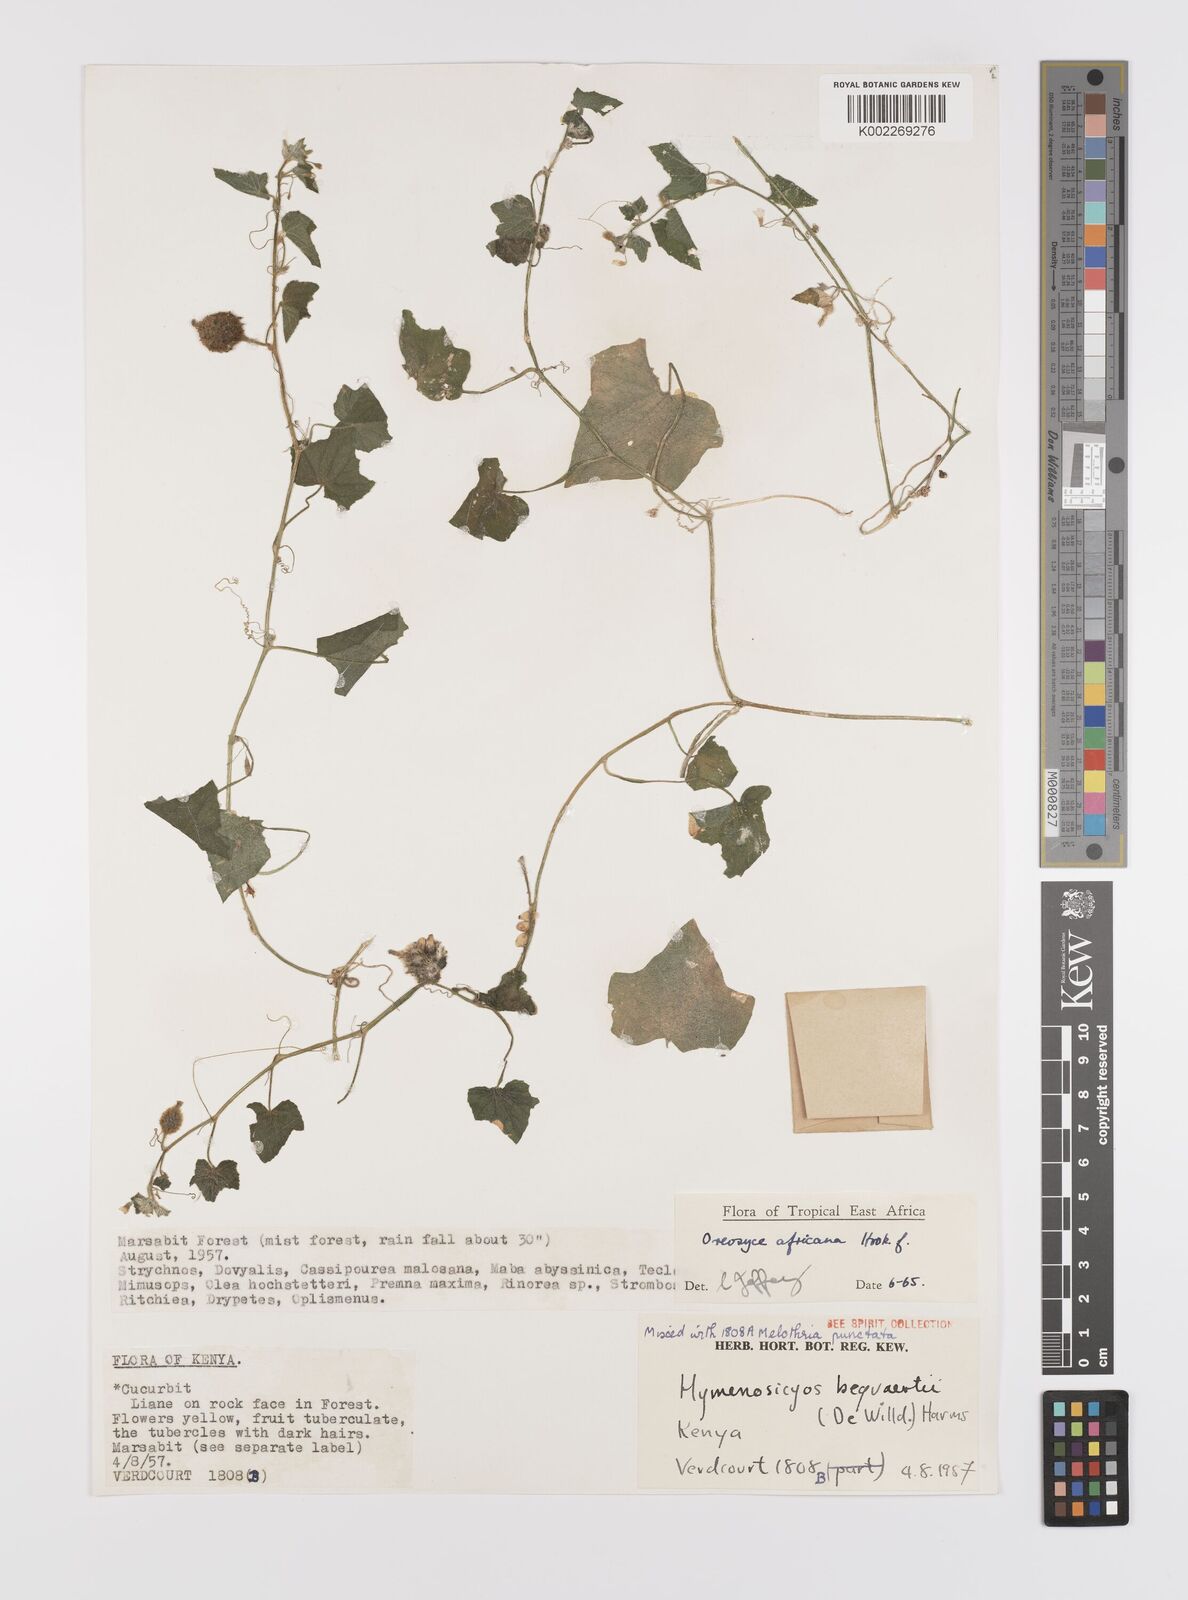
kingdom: Plantae
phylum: Tracheophyta
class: Magnoliopsida
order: Cucurbitales
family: Cucurbitaceae
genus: Cucumis
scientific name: Cucumis oreosyce
